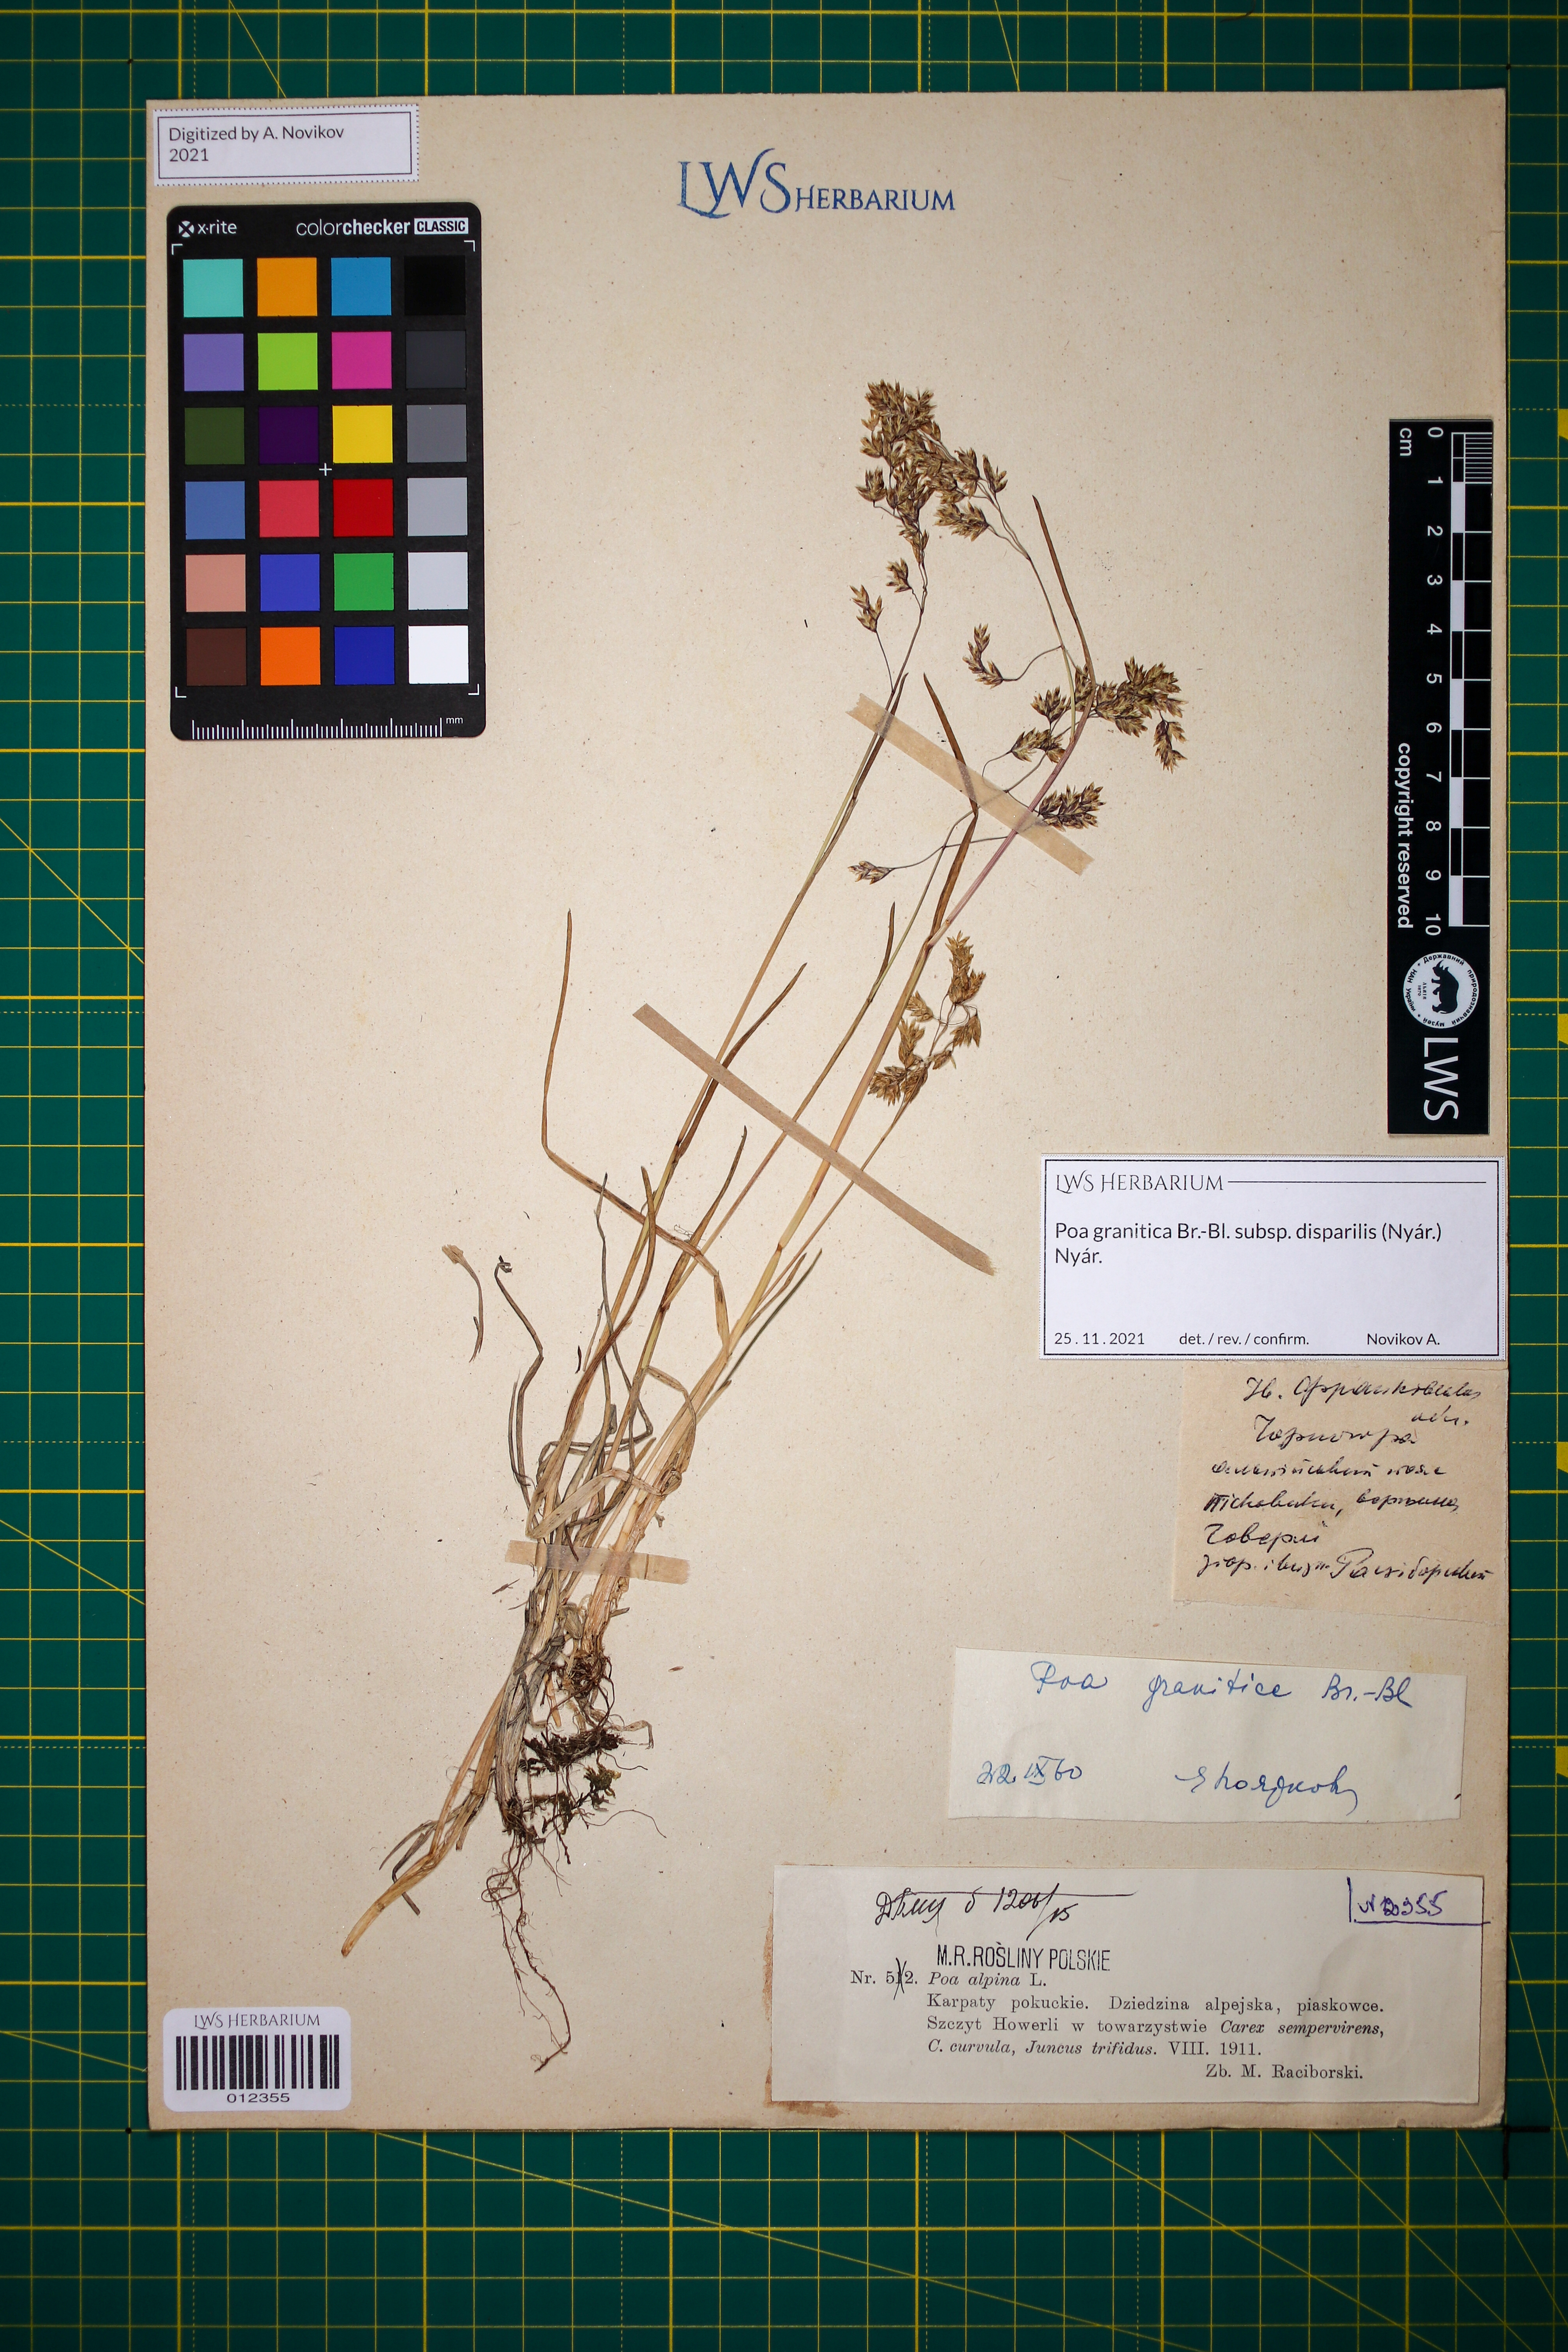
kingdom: Plantae
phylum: Tracheophyta
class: Liliopsida
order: Poales
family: Poaceae
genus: Poa
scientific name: Poa granitica
